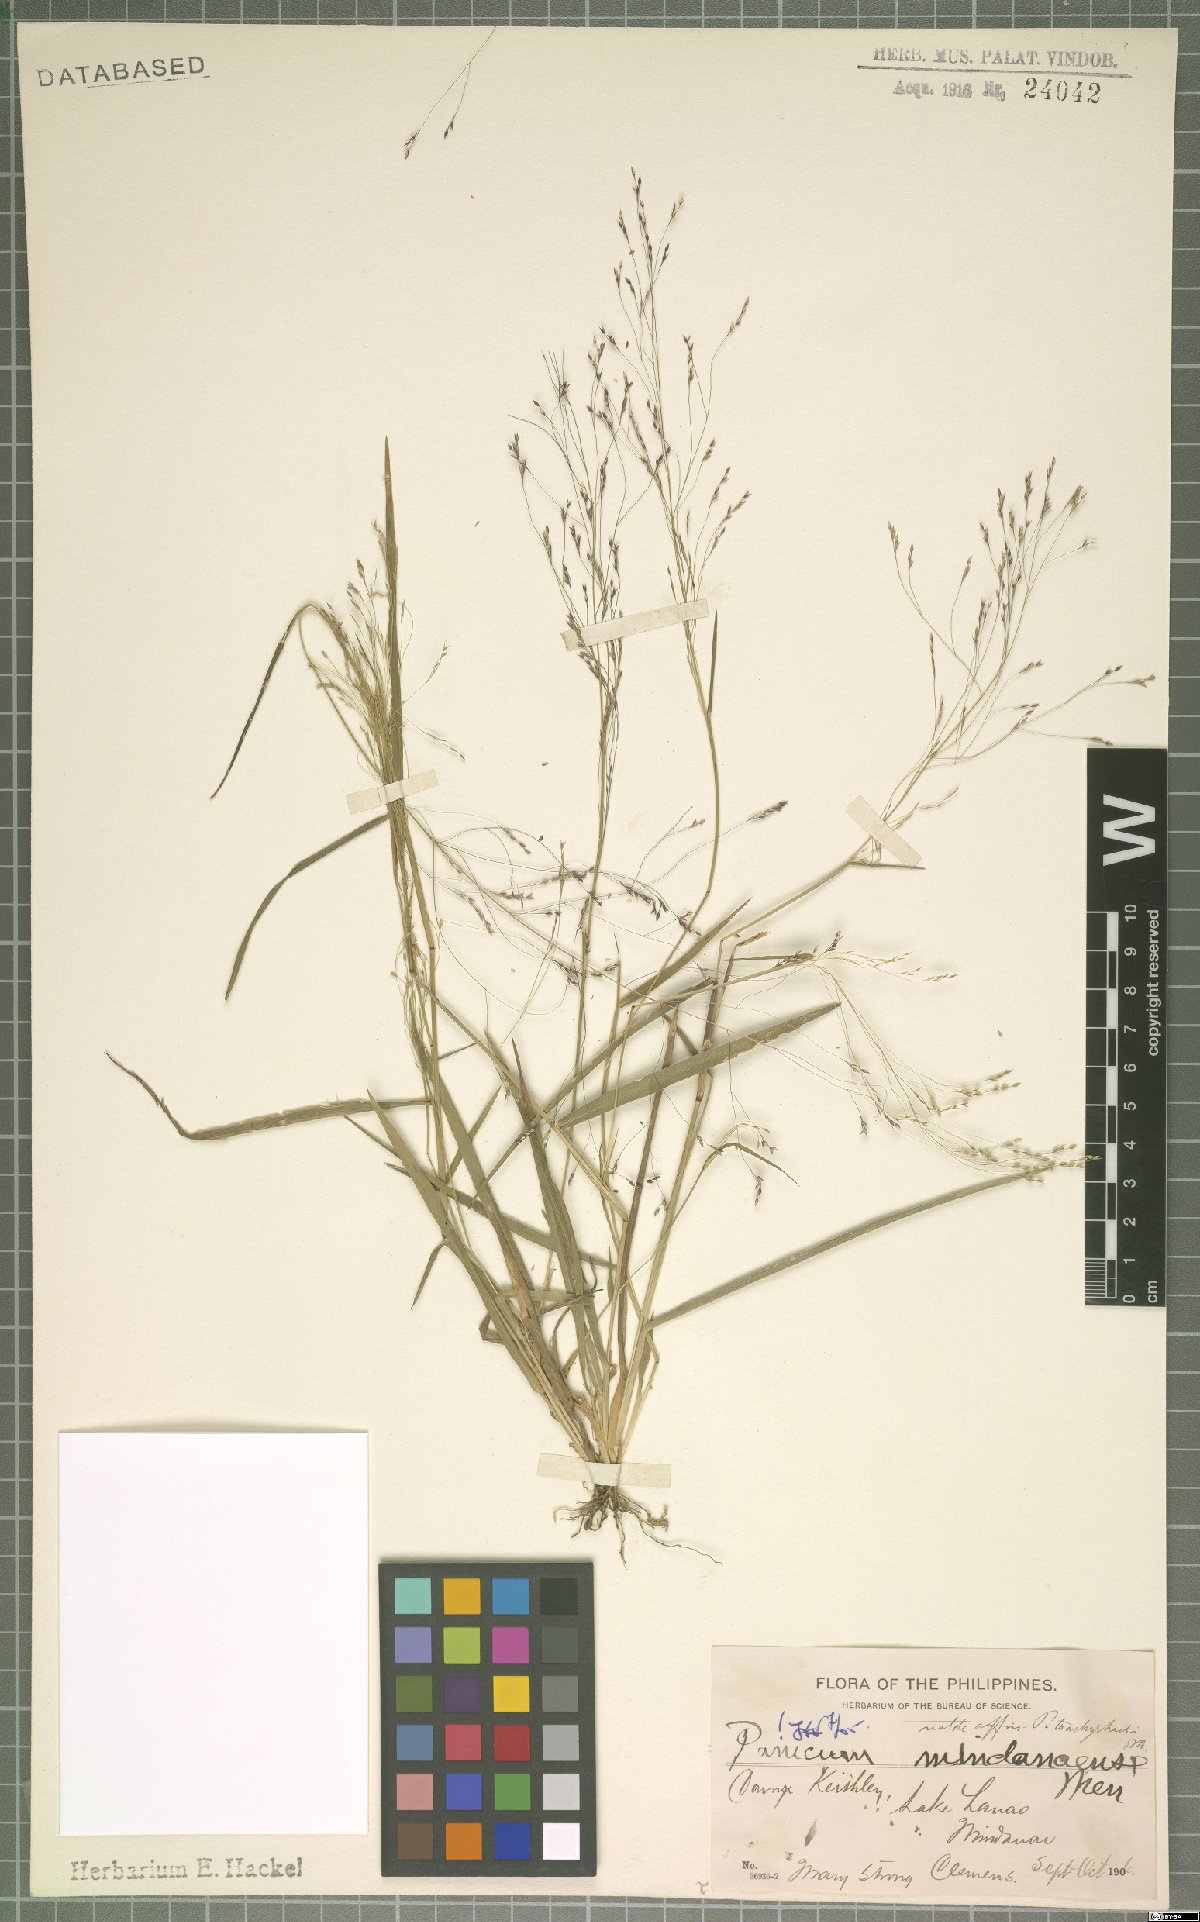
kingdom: Plantae
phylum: Tracheophyta
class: Liliopsida
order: Poales
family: Poaceae
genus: Panicum
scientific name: Panicum mindanaense
